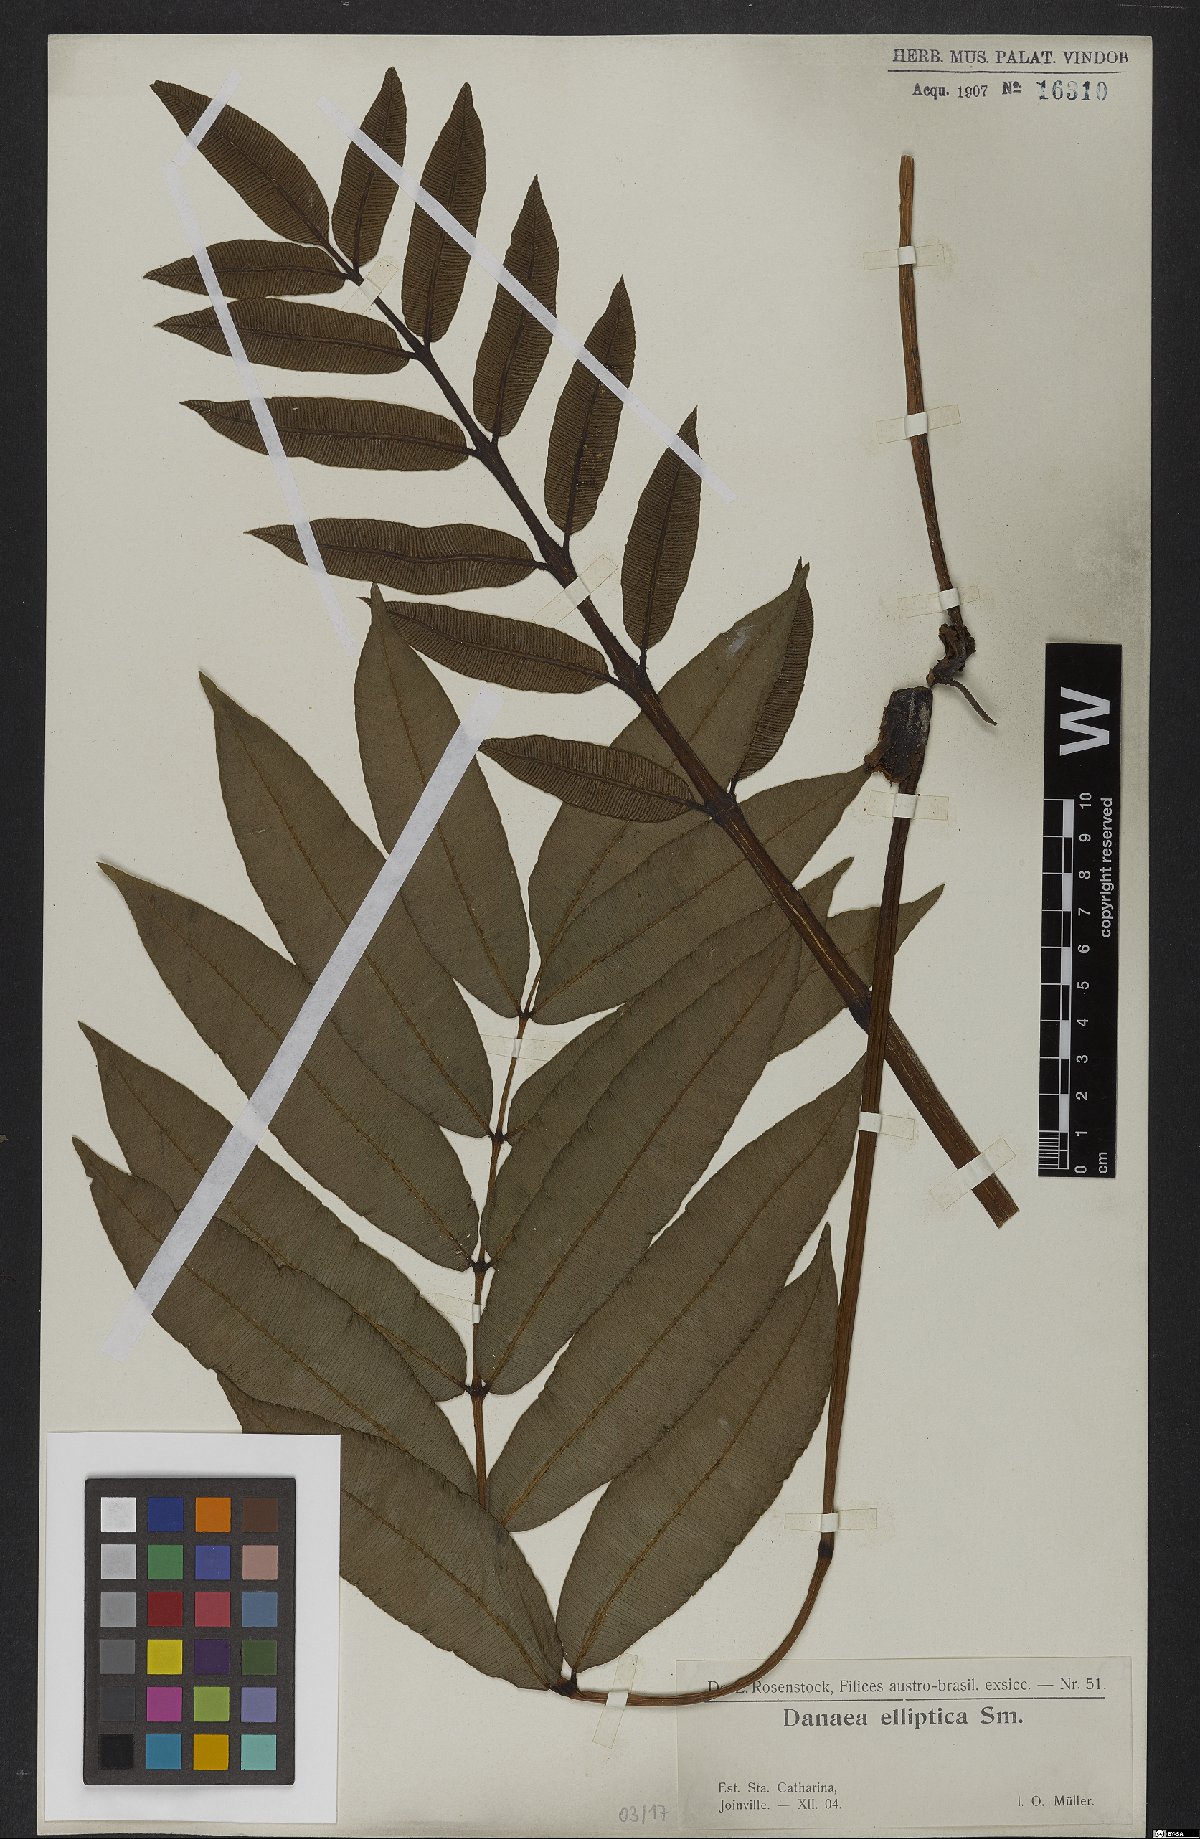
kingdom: Plantae
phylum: Tracheophyta
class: Polypodiopsida
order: Marattiales
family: Marattiaceae
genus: Danaea
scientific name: Danaea nodosa
